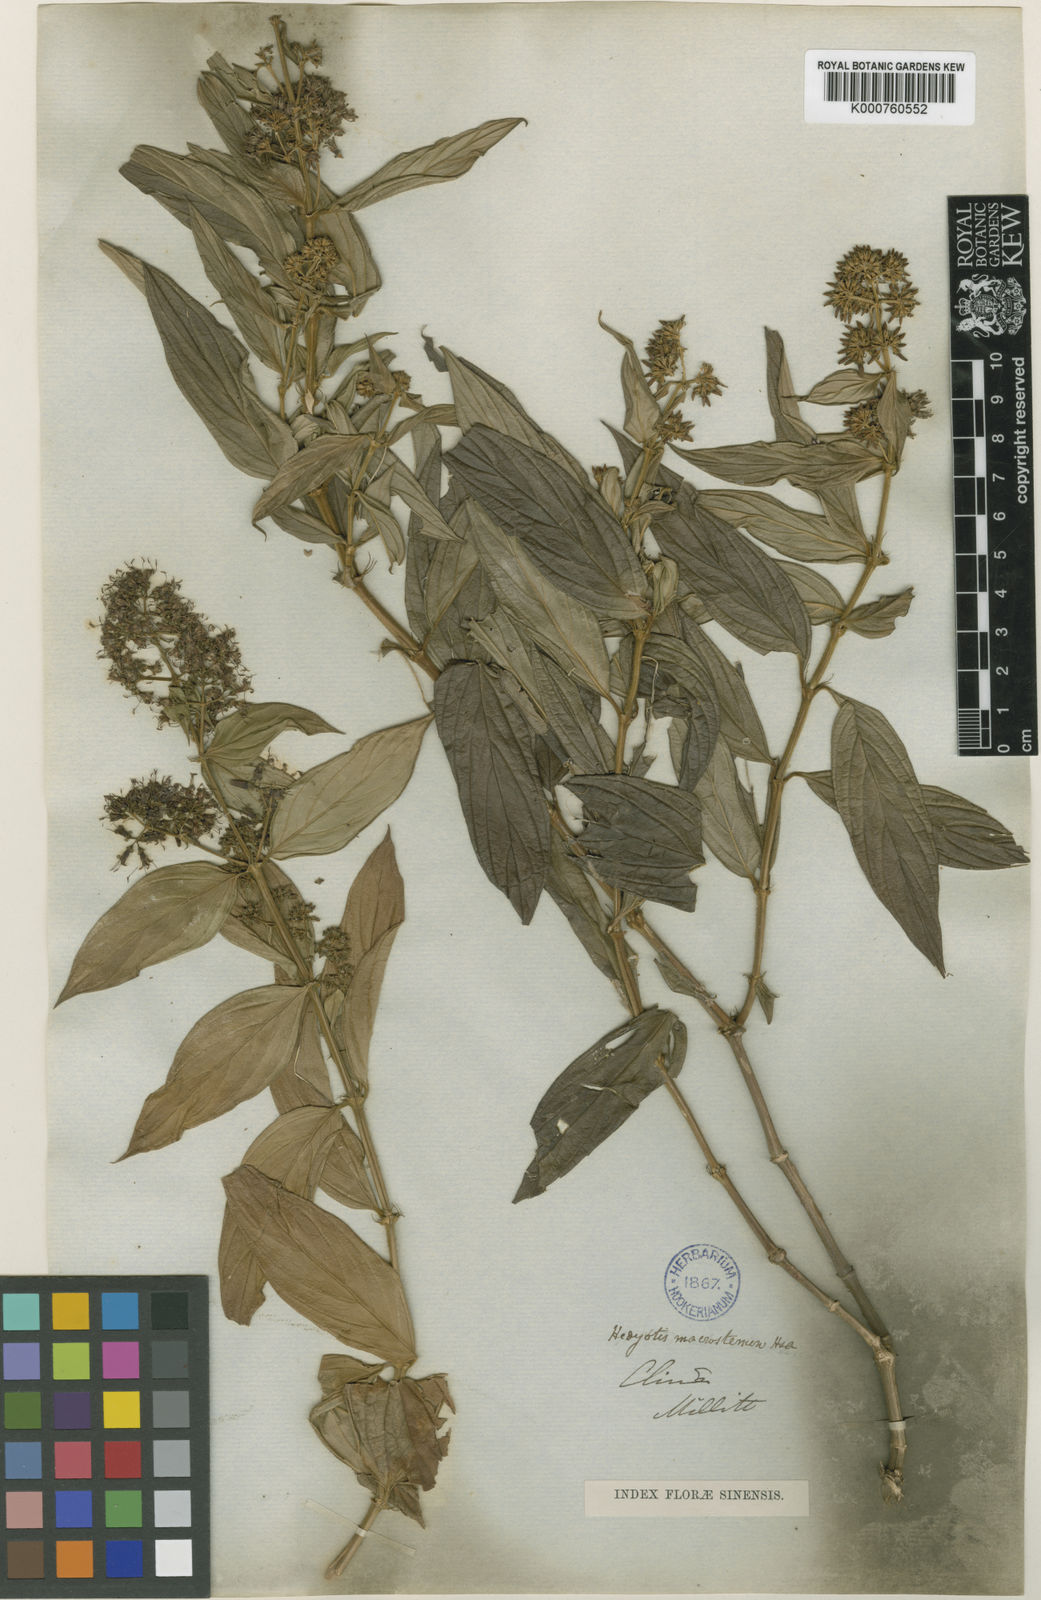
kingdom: Plantae
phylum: Tracheophyta
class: Magnoliopsida
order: Gentianales
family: Rubiaceae
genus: Dimetia
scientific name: Dimetia hedyotidea
